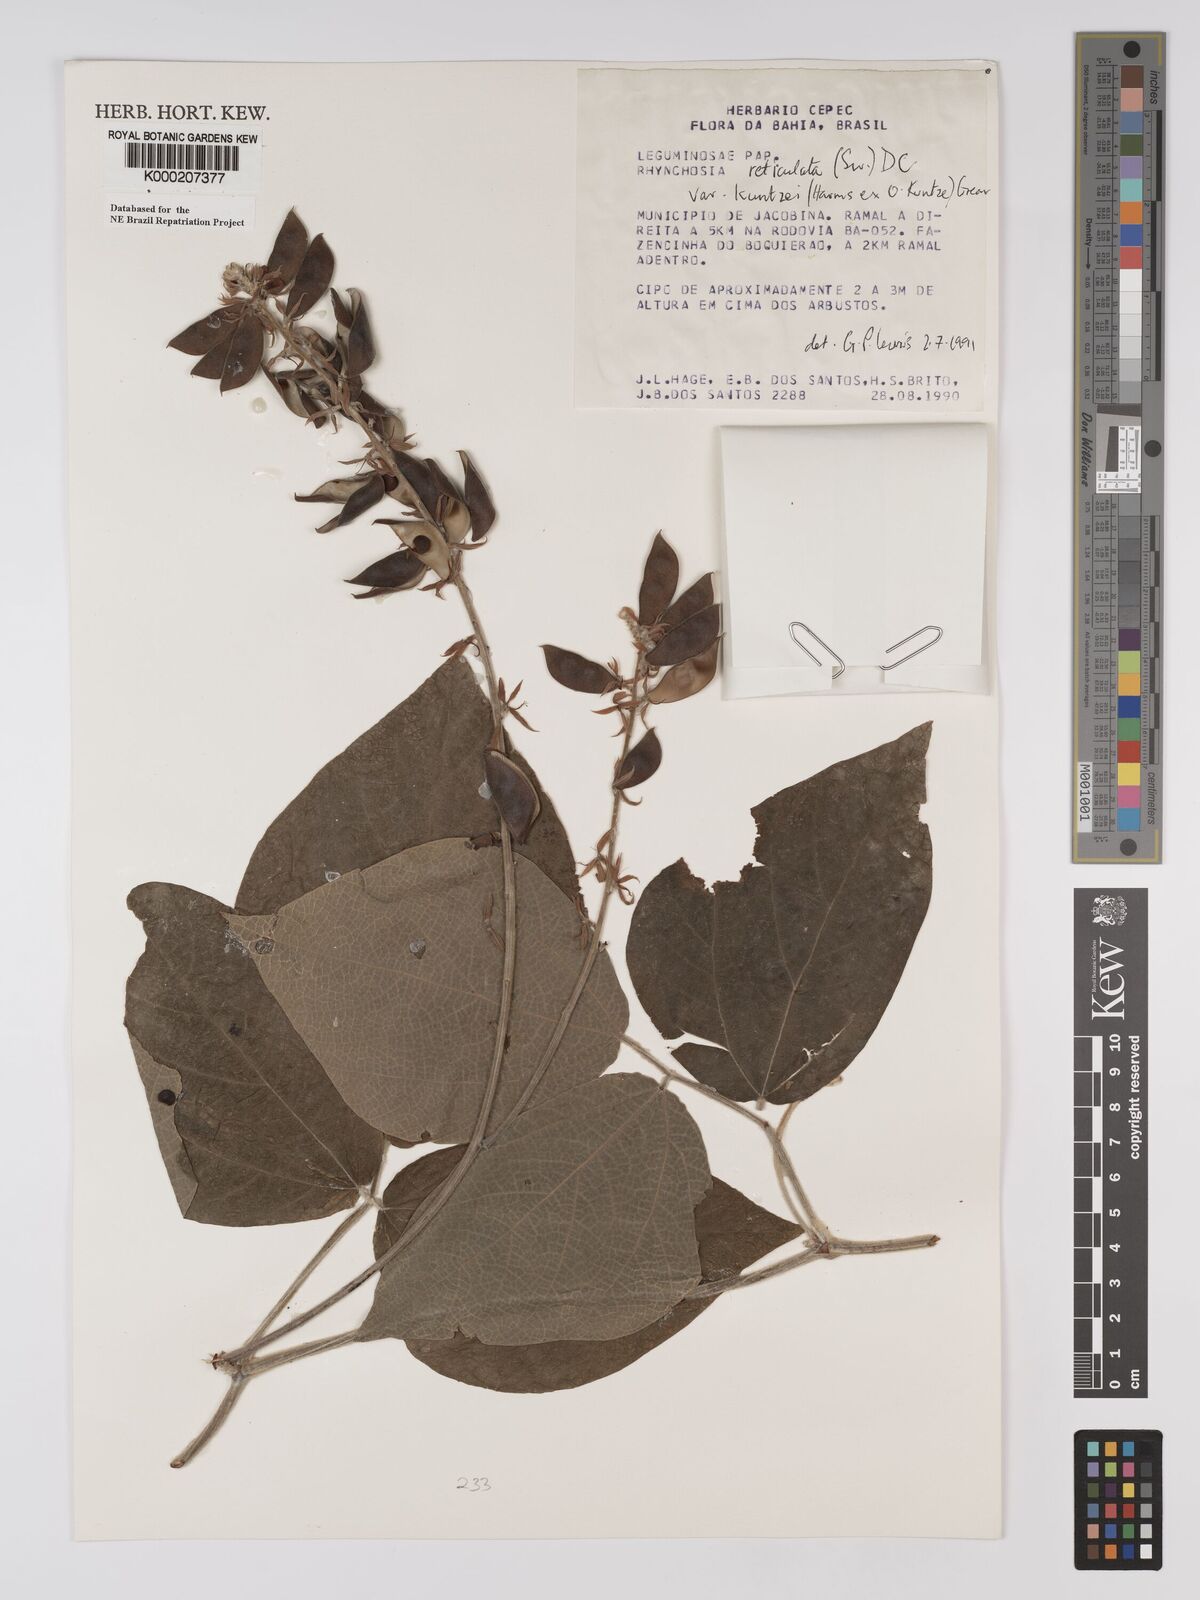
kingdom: Plantae
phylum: Tracheophyta
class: Magnoliopsida
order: Fabales
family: Fabaceae
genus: Rhynchosia
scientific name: Rhynchosia reticulata
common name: Pea withe
